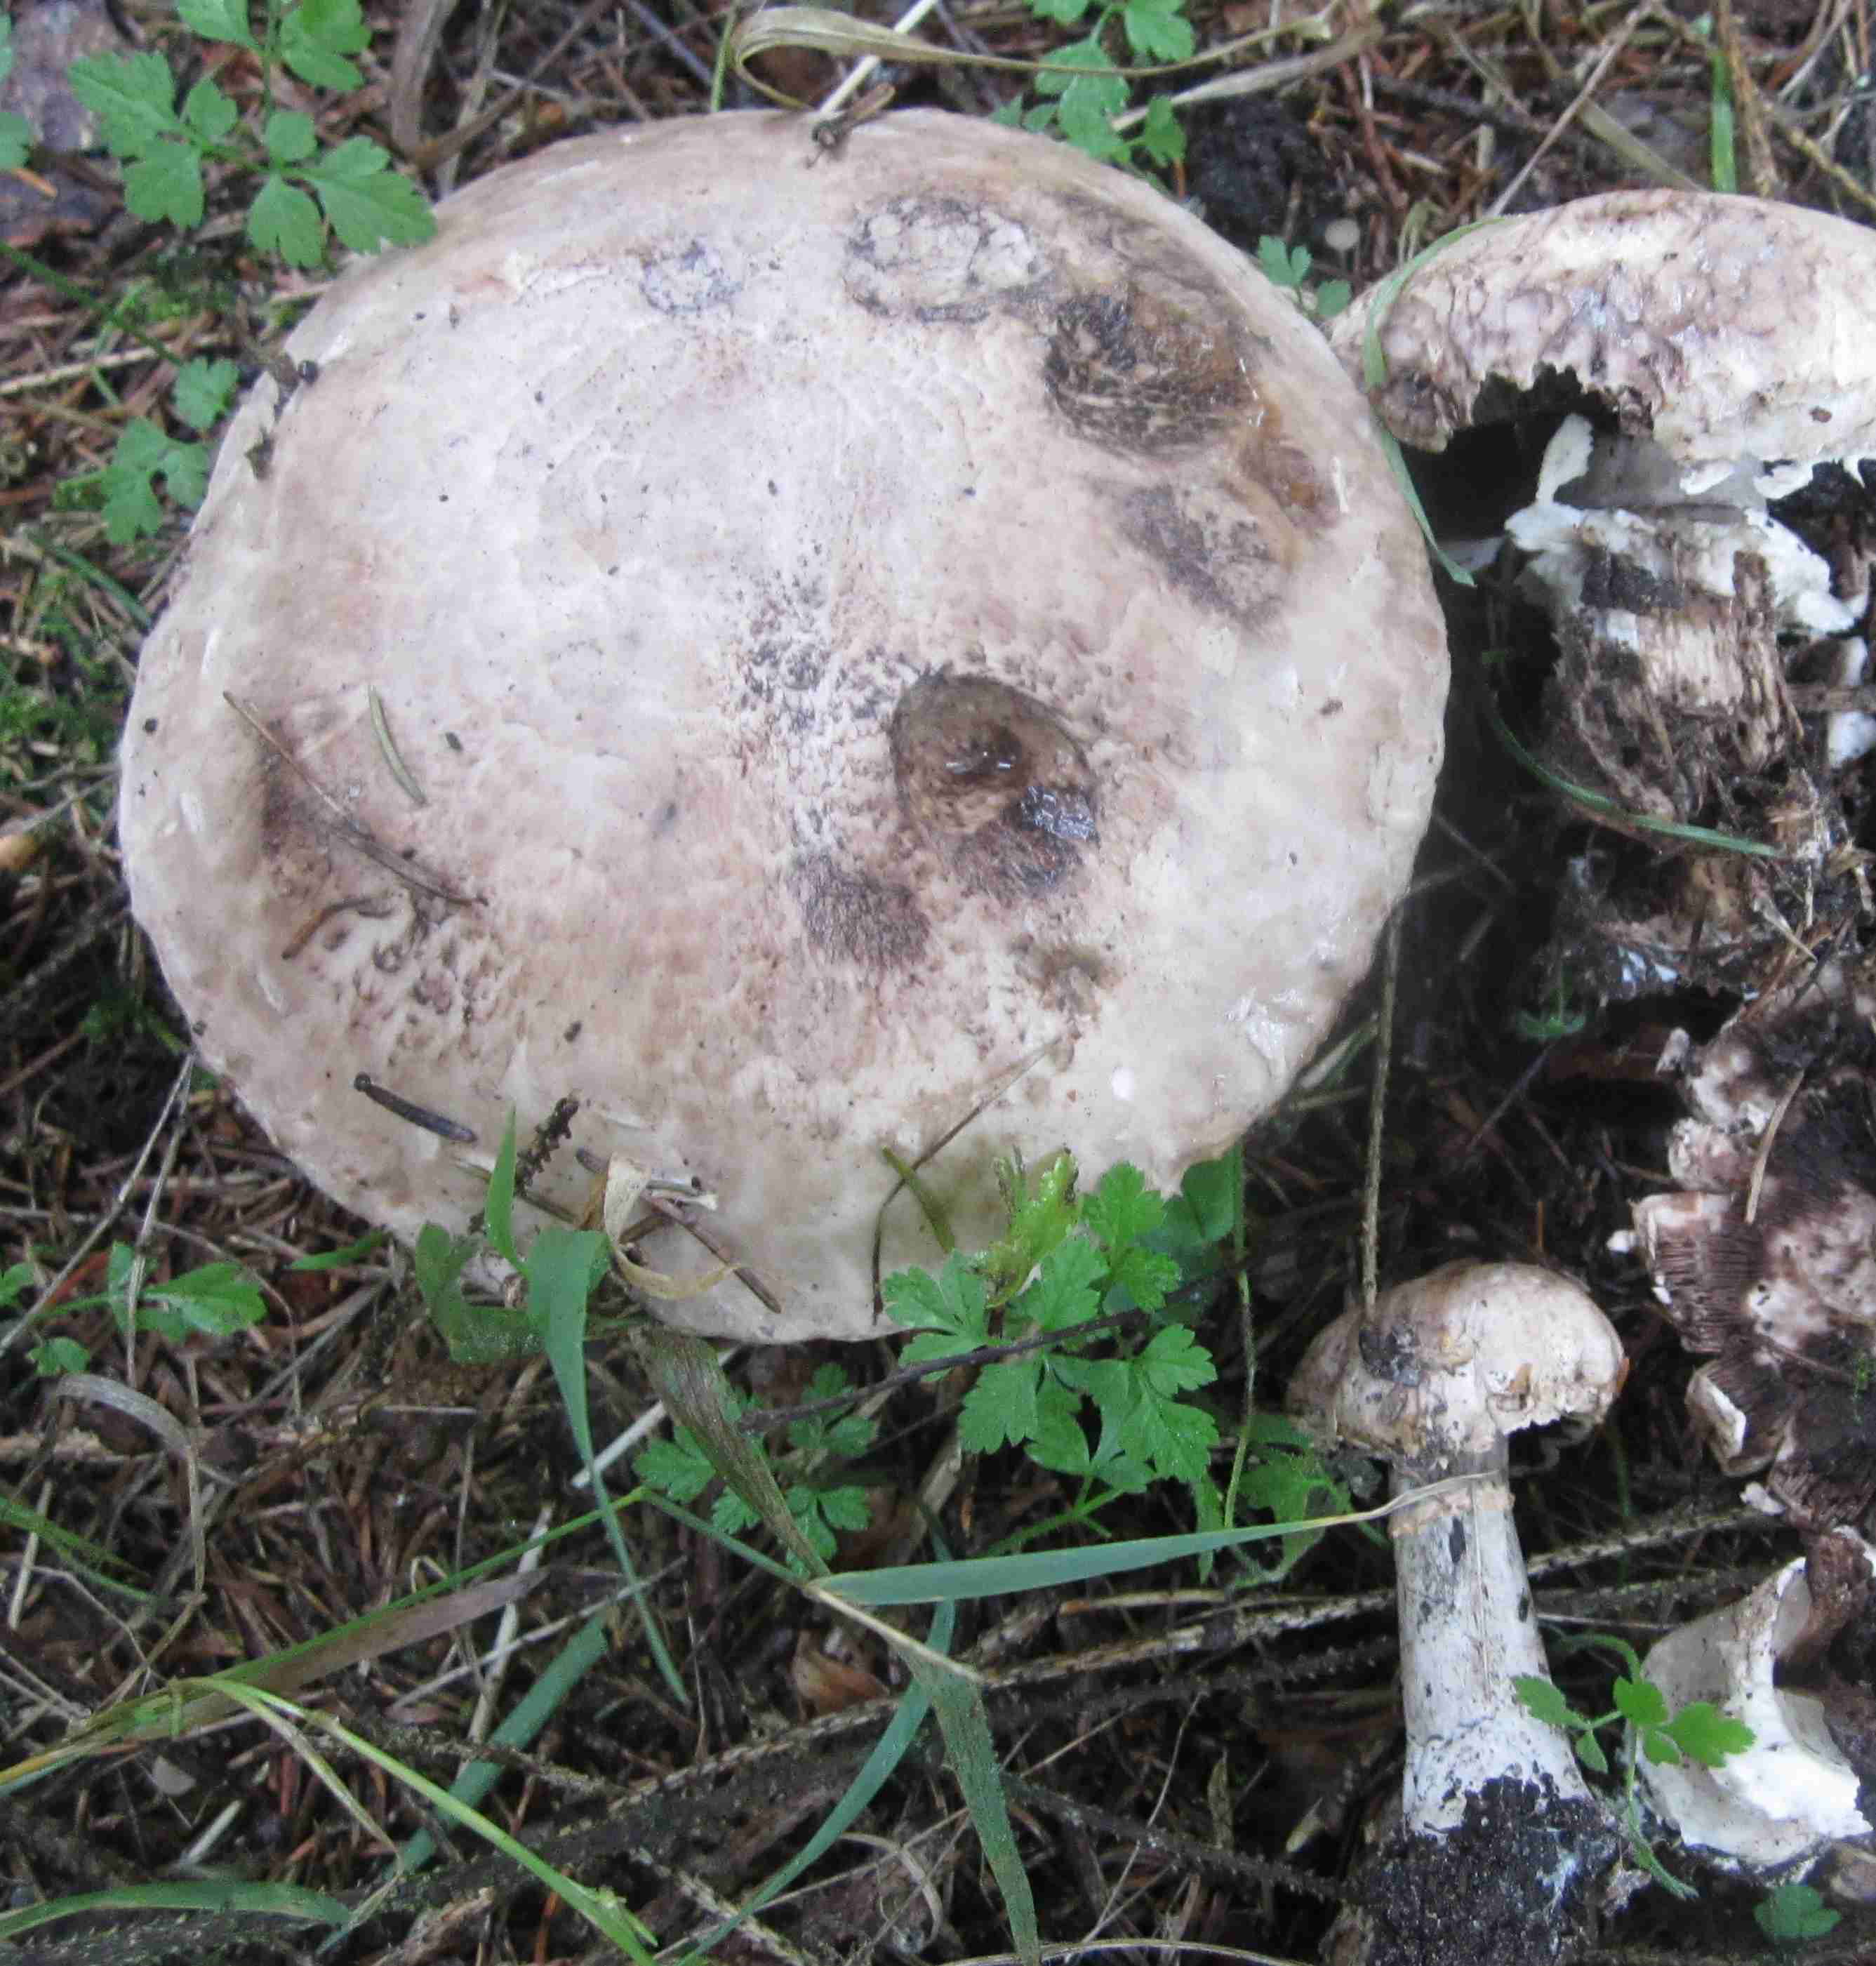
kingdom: Fungi
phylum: Basidiomycota
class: Agaricomycetes
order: Agaricales
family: Agaricaceae
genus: Agaricus
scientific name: Agaricus
